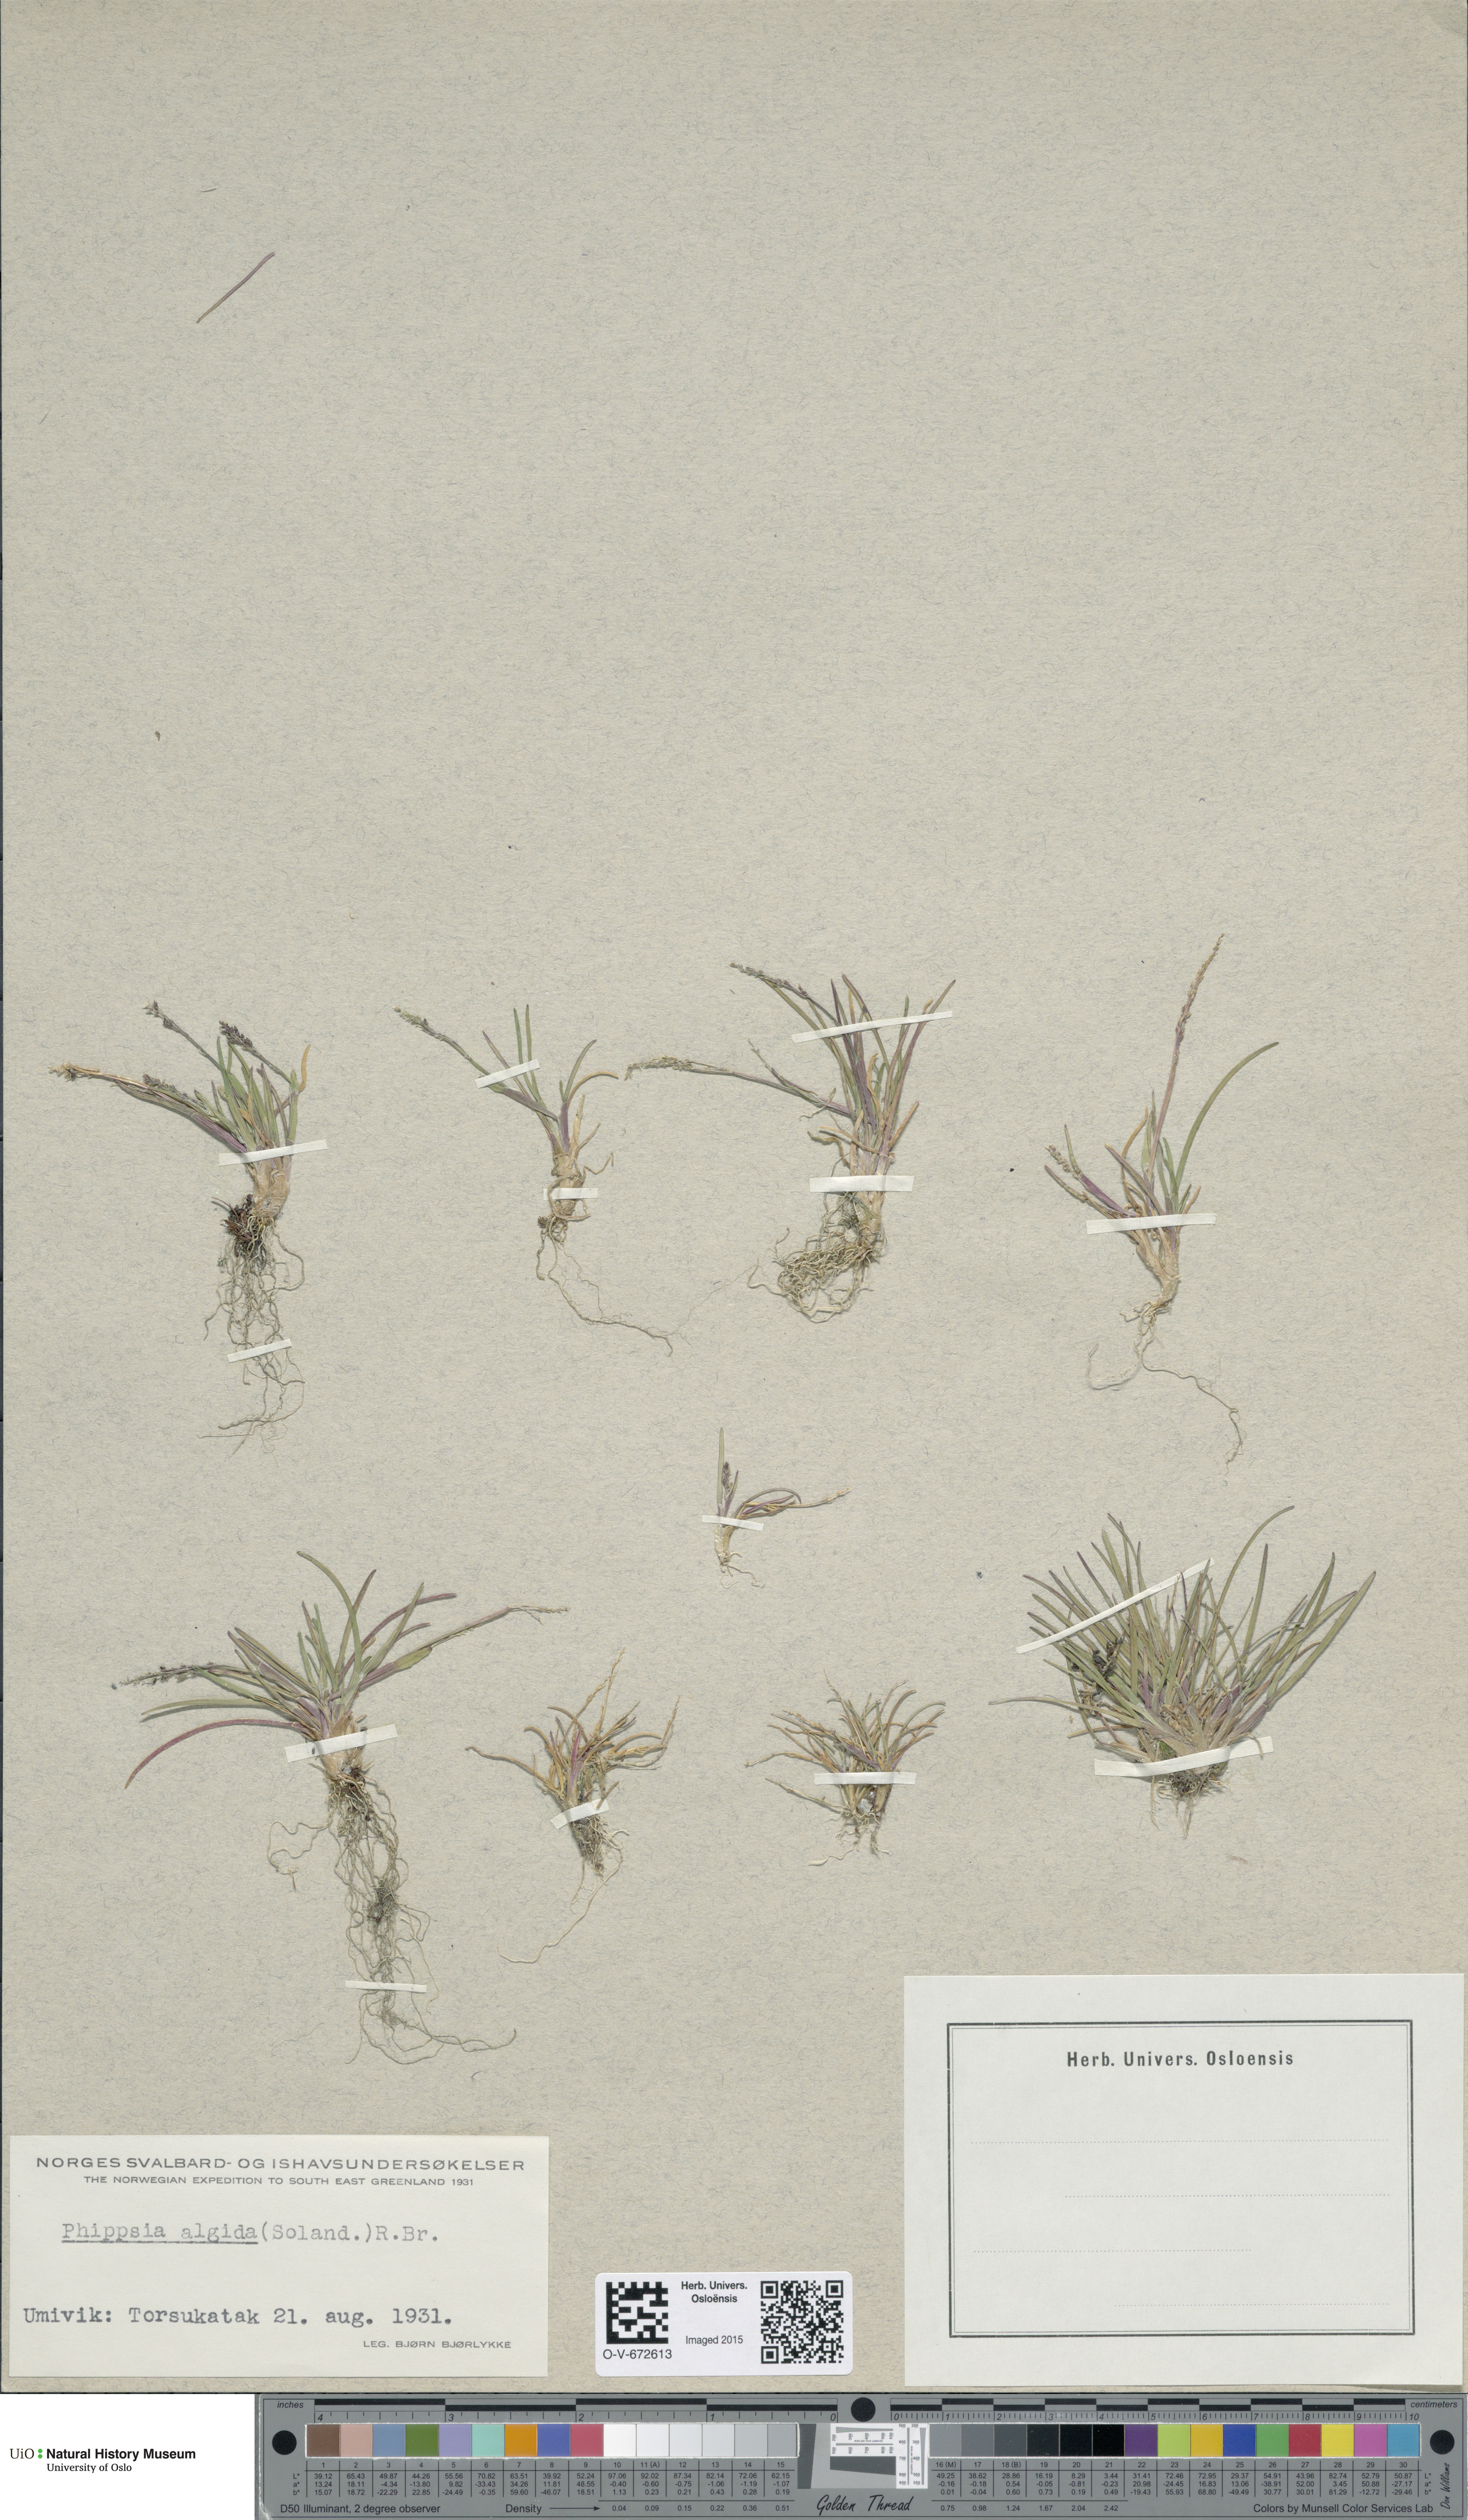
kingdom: Plantae
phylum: Tracheophyta
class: Liliopsida
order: Poales
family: Poaceae
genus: Phippsia
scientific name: Phippsia algida
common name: Ice grass
